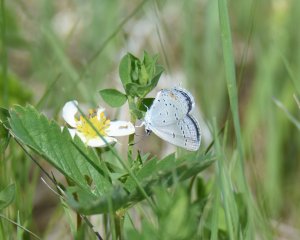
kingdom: Animalia
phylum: Arthropoda
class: Insecta
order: Lepidoptera
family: Lycaenidae
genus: Elkalyce
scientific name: Elkalyce comyntas
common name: Eastern Tailed-Blue
